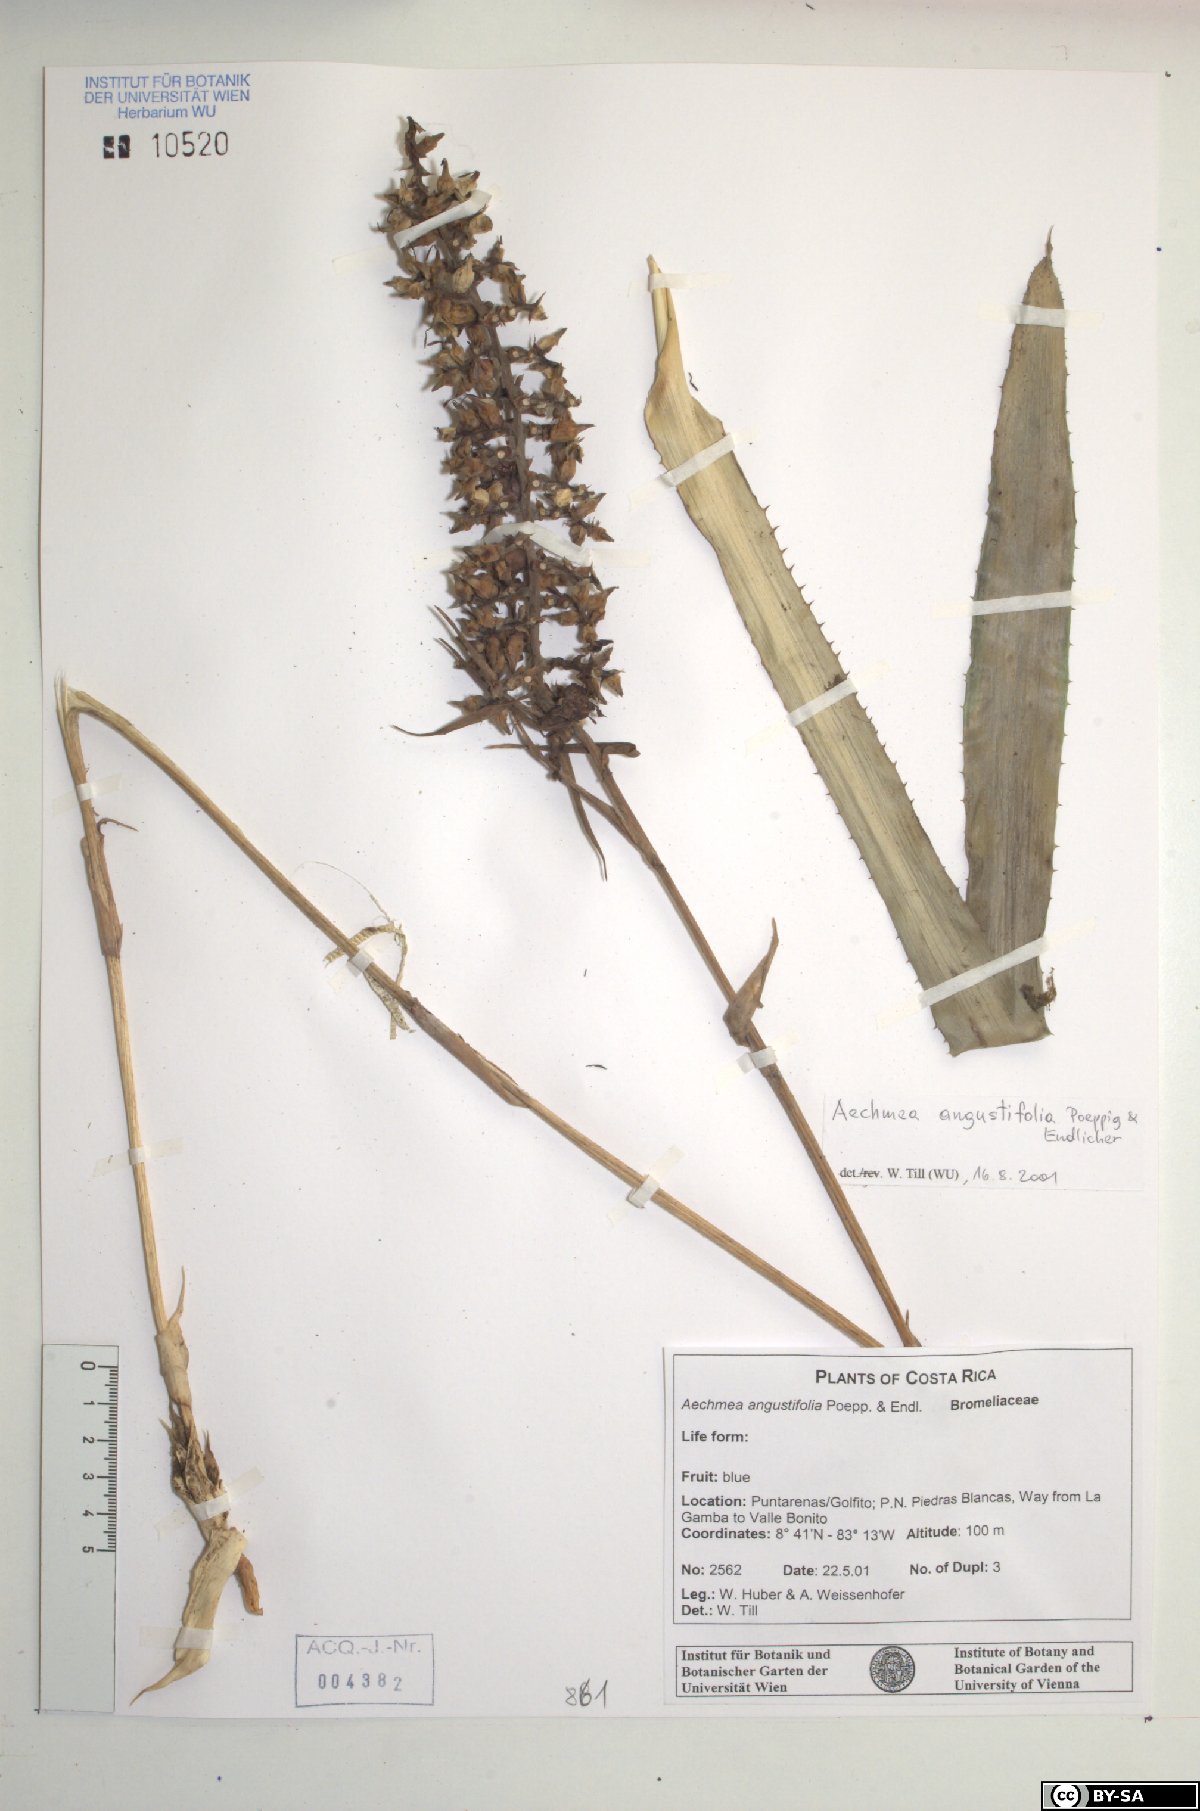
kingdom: Plantae
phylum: Tracheophyta
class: Liliopsida
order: Poales
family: Bromeliaceae
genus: Aechmea
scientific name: Aechmea angustifolia
